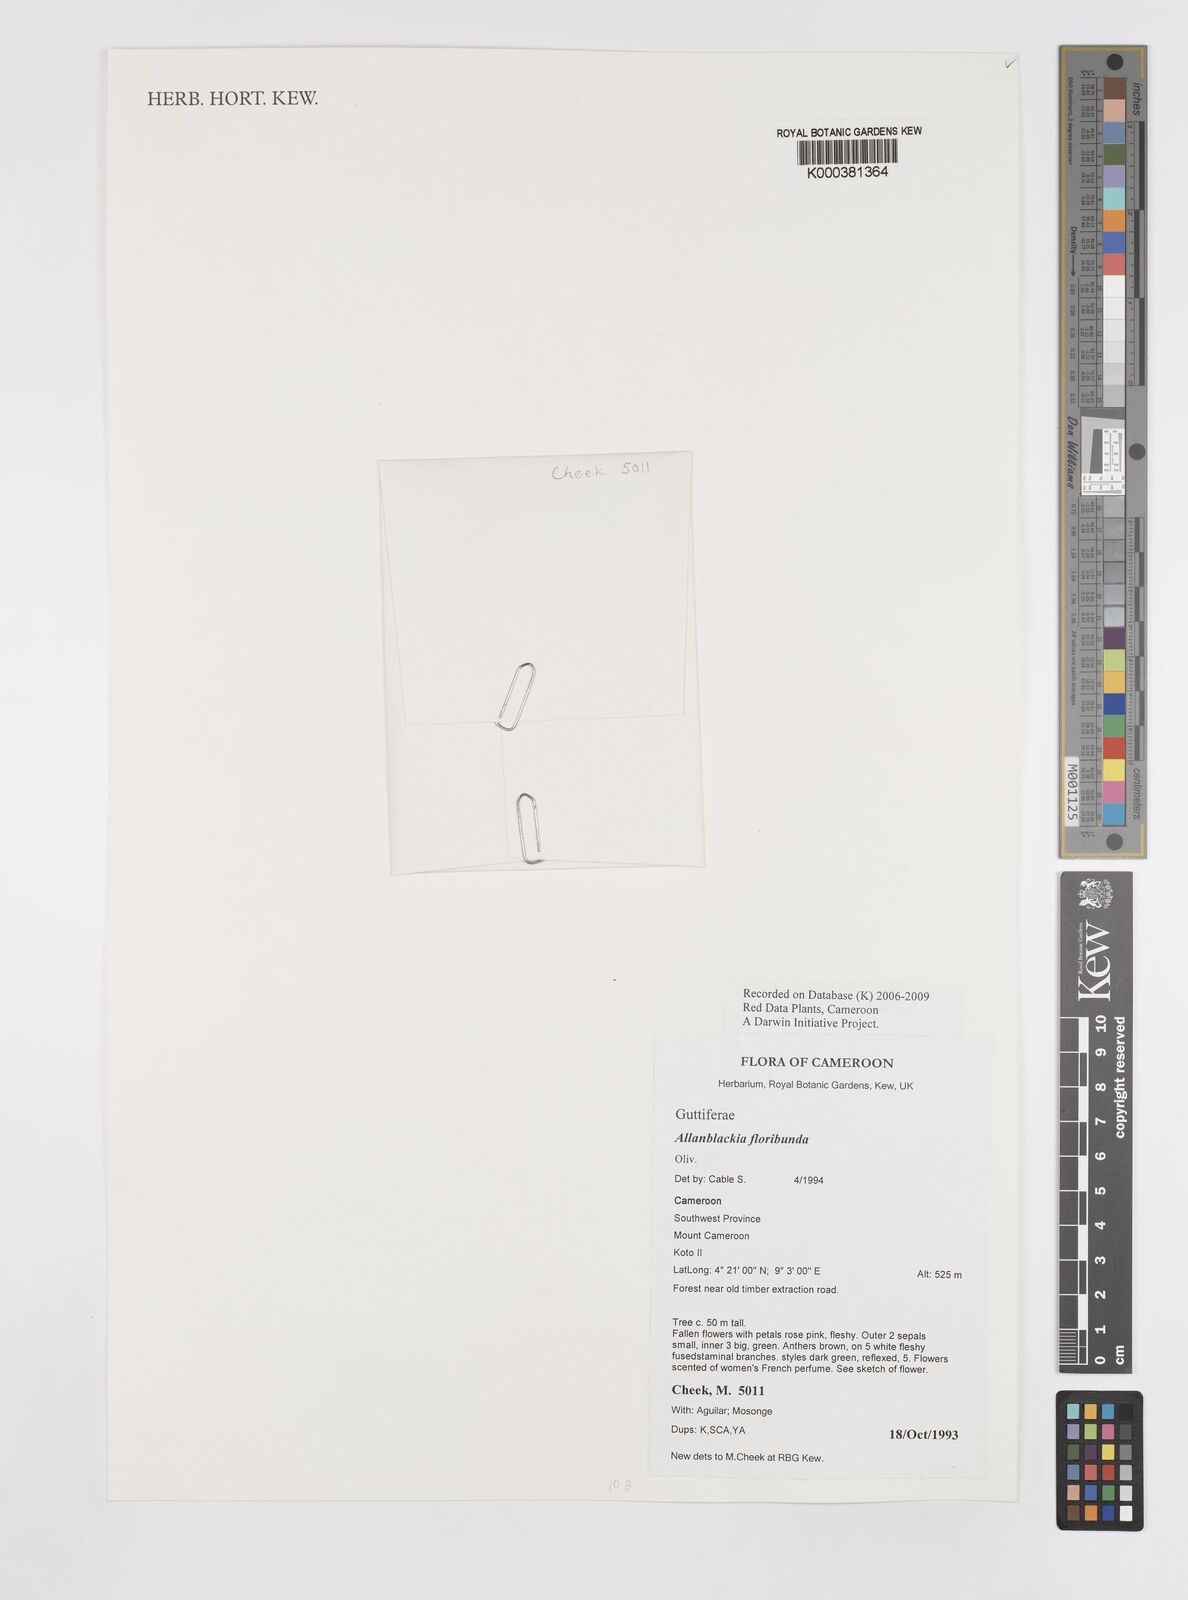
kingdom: Plantae
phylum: Tracheophyta
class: Magnoliopsida
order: Malpighiales
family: Clusiaceae
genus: Allanblackia
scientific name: Allanblackia floribunda
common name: Tallow tree
